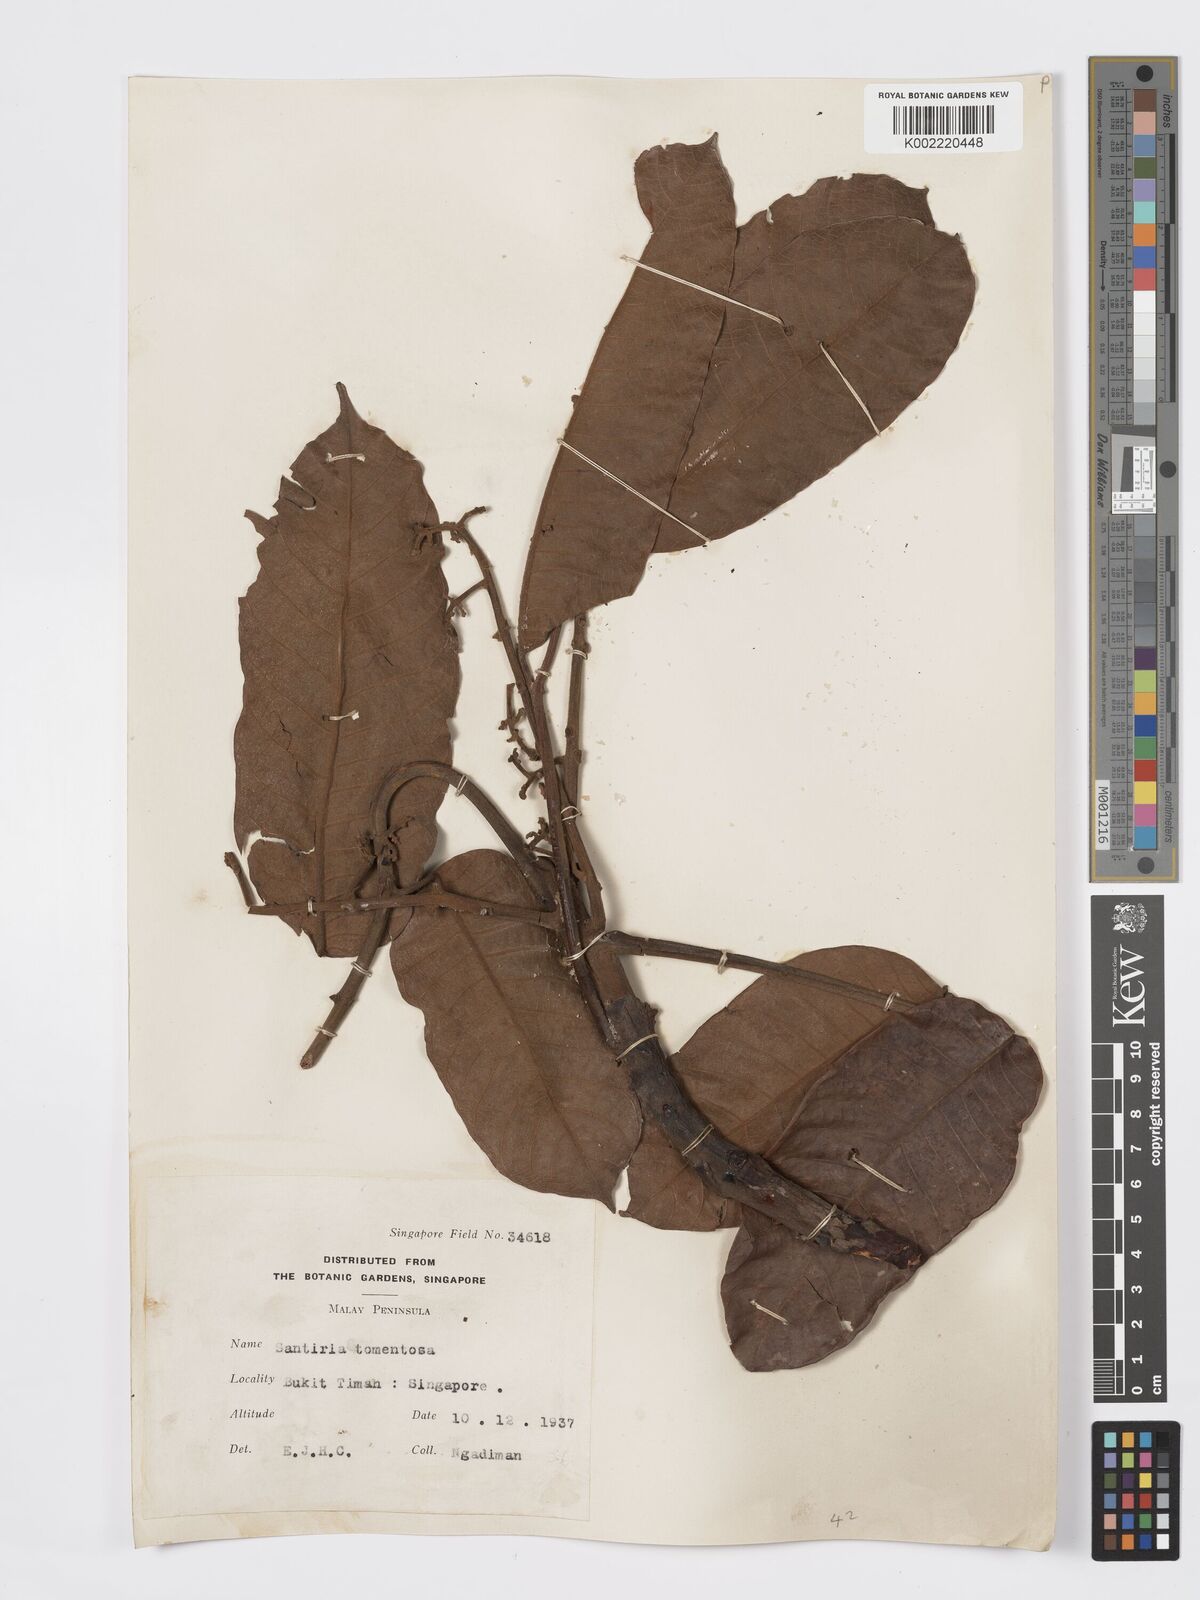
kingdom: Plantae
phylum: Tracheophyta
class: Magnoliopsida
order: Sapindales
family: Burseraceae
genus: Santiria
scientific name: Santiria tomentosa
